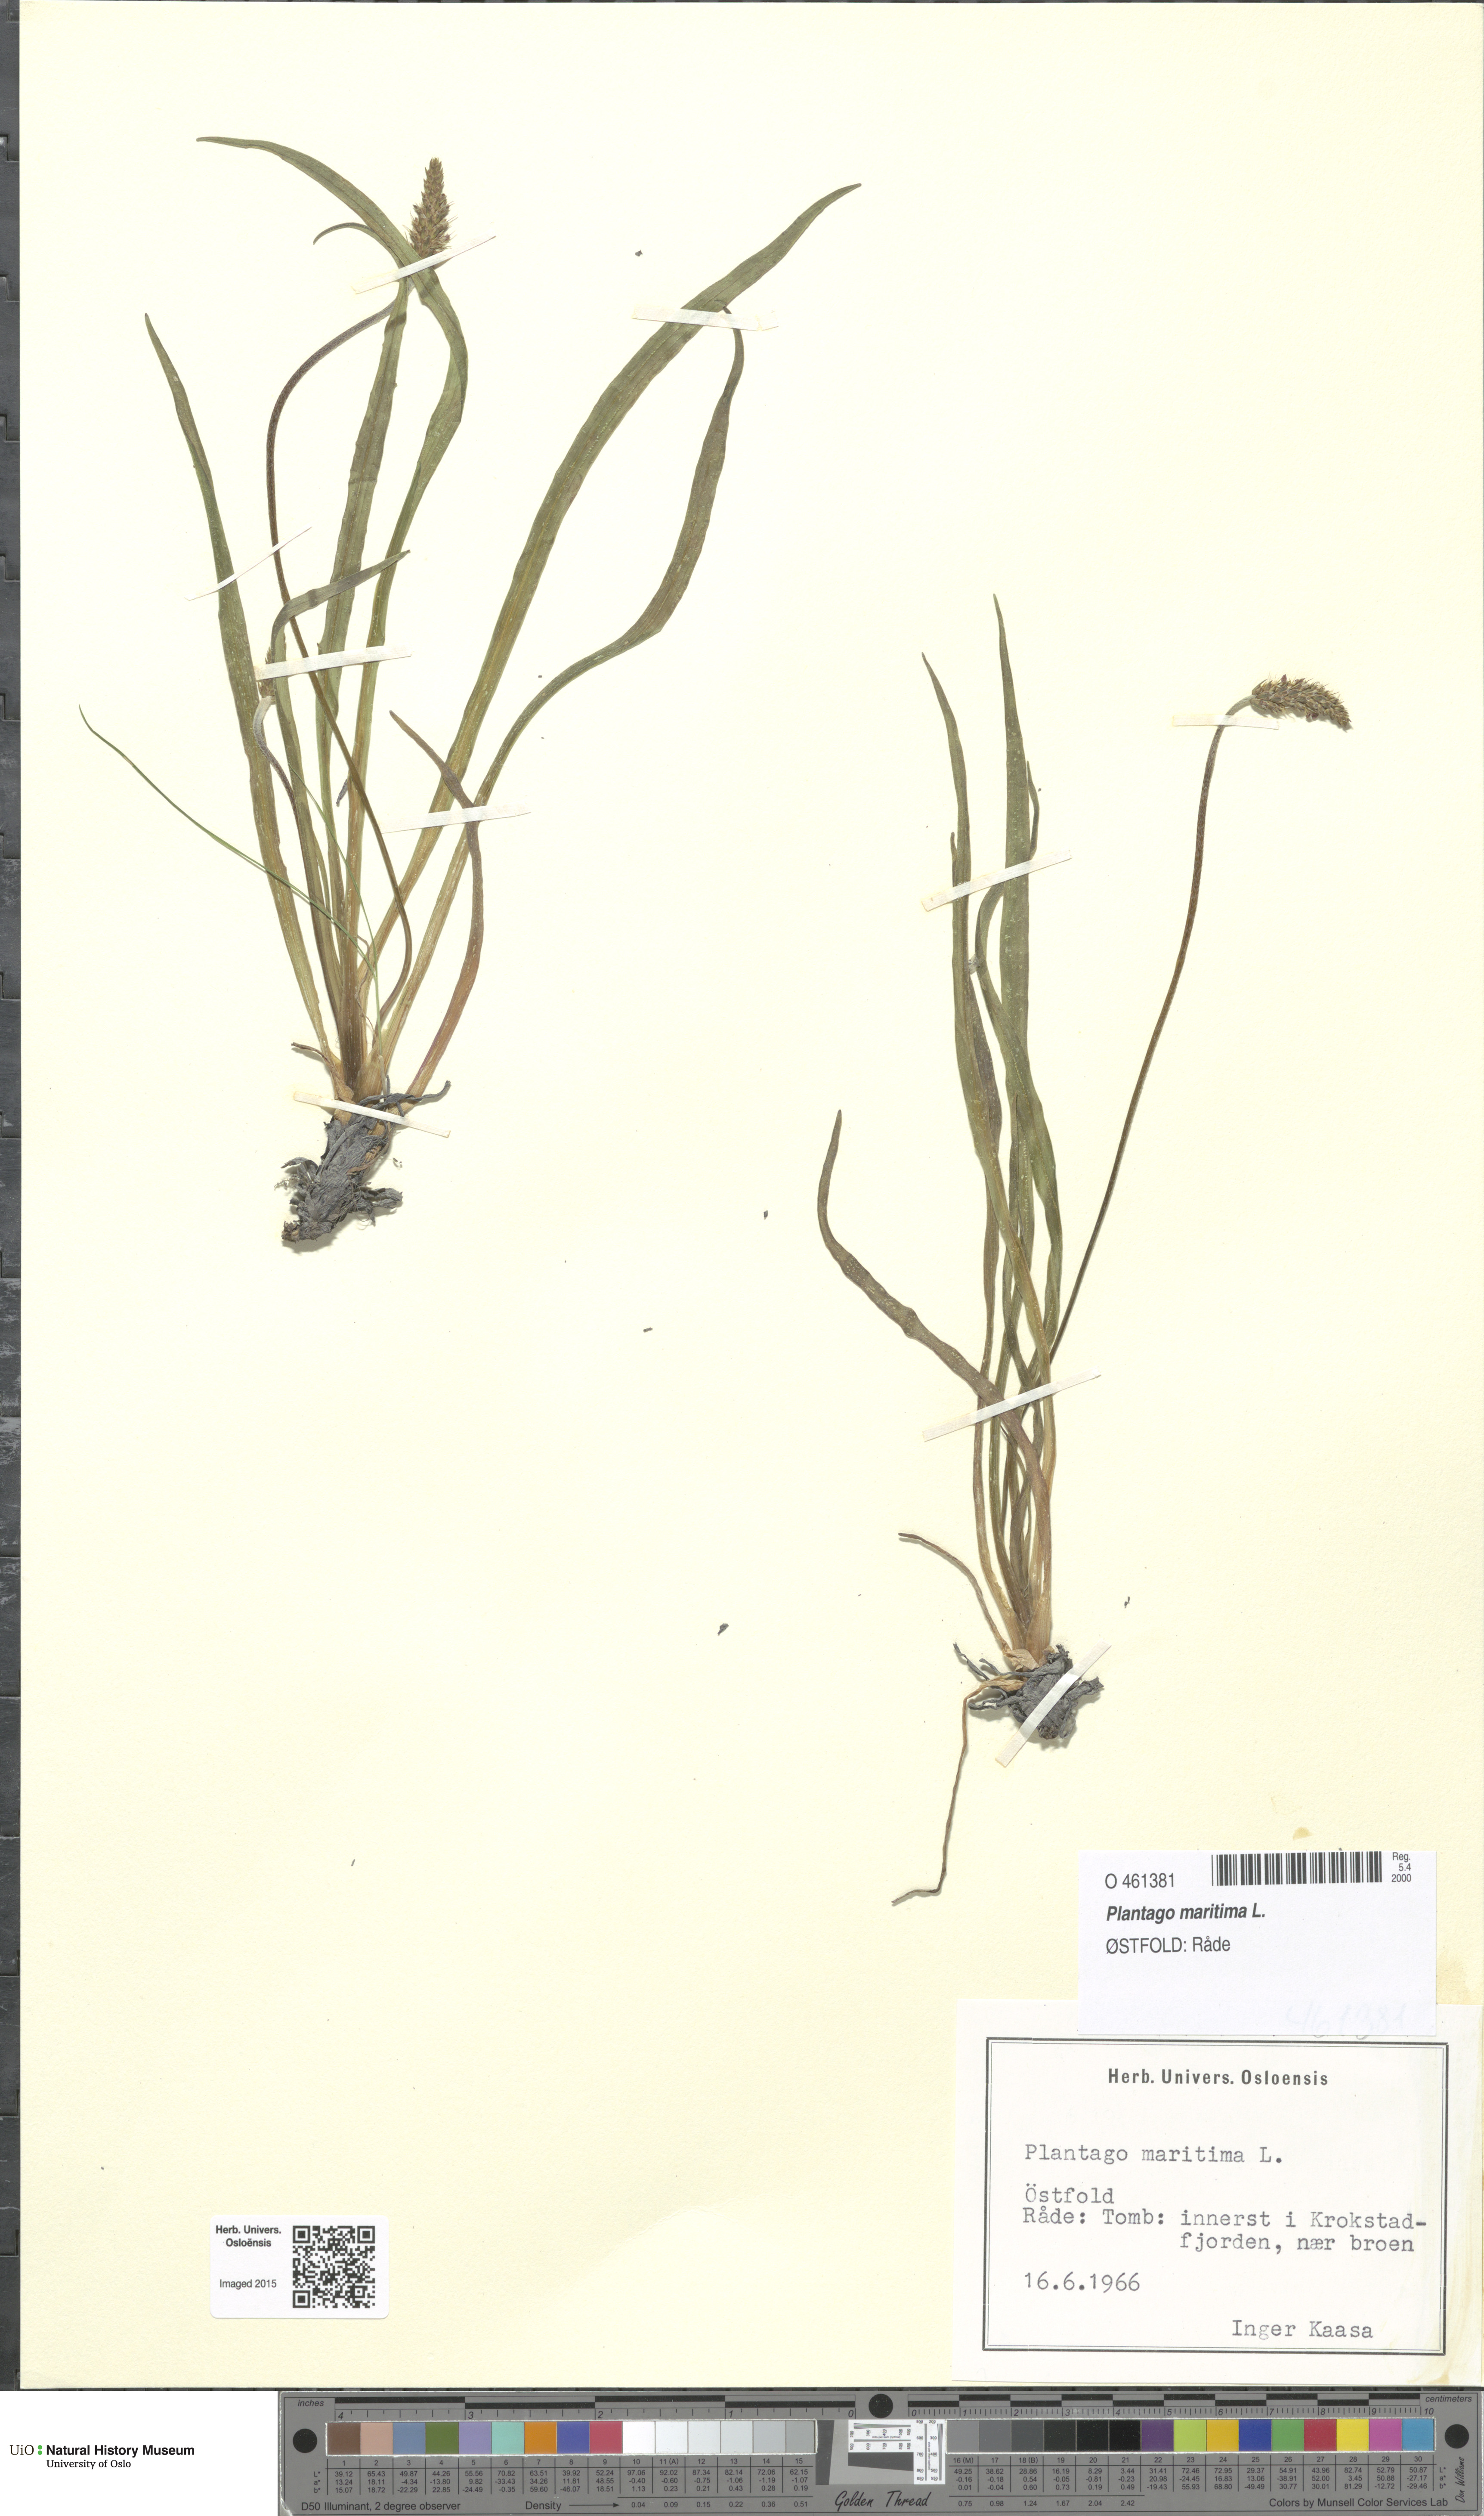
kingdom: Plantae
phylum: Tracheophyta
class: Magnoliopsida
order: Lamiales
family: Plantaginaceae
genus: Plantago
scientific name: Plantago maritima
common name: Sea plantain
